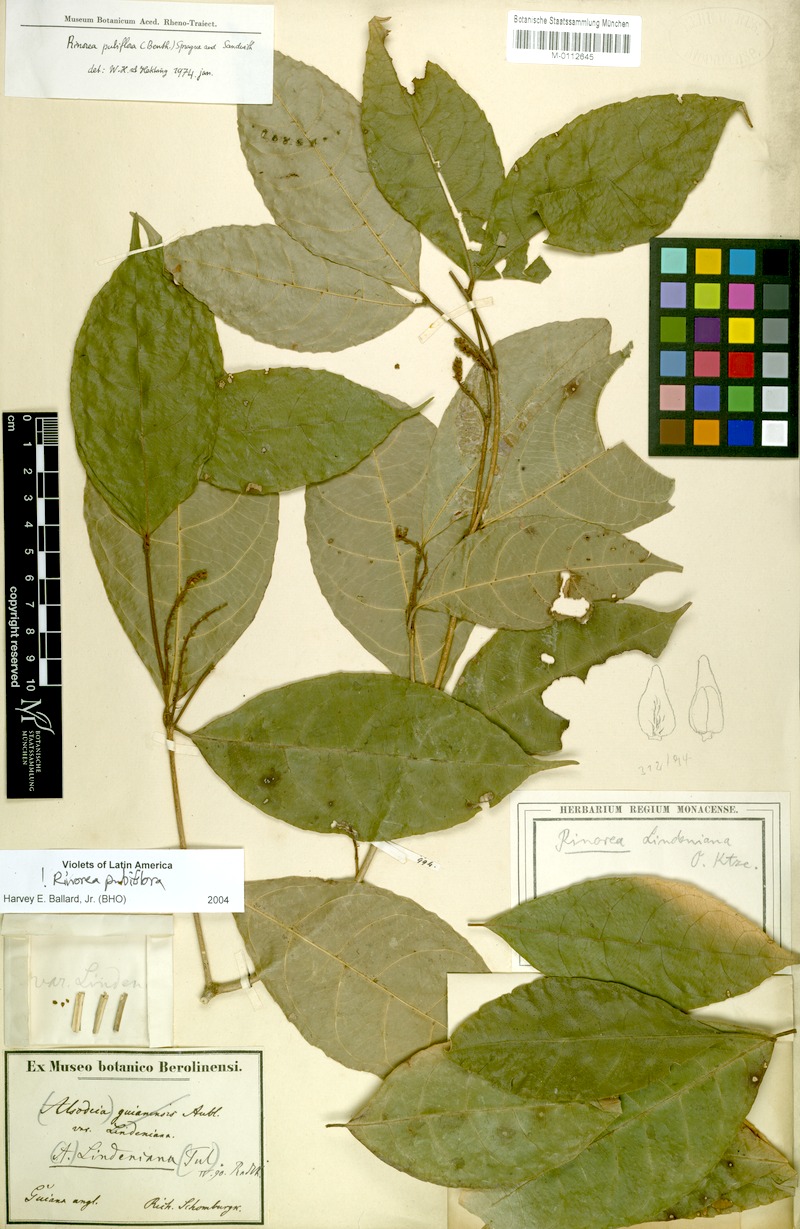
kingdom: Plantae
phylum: Tracheophyta
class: Magnoliopsida
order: Malpighiales
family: Violaceae
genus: Rinorea
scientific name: Rinorea pubiflora
